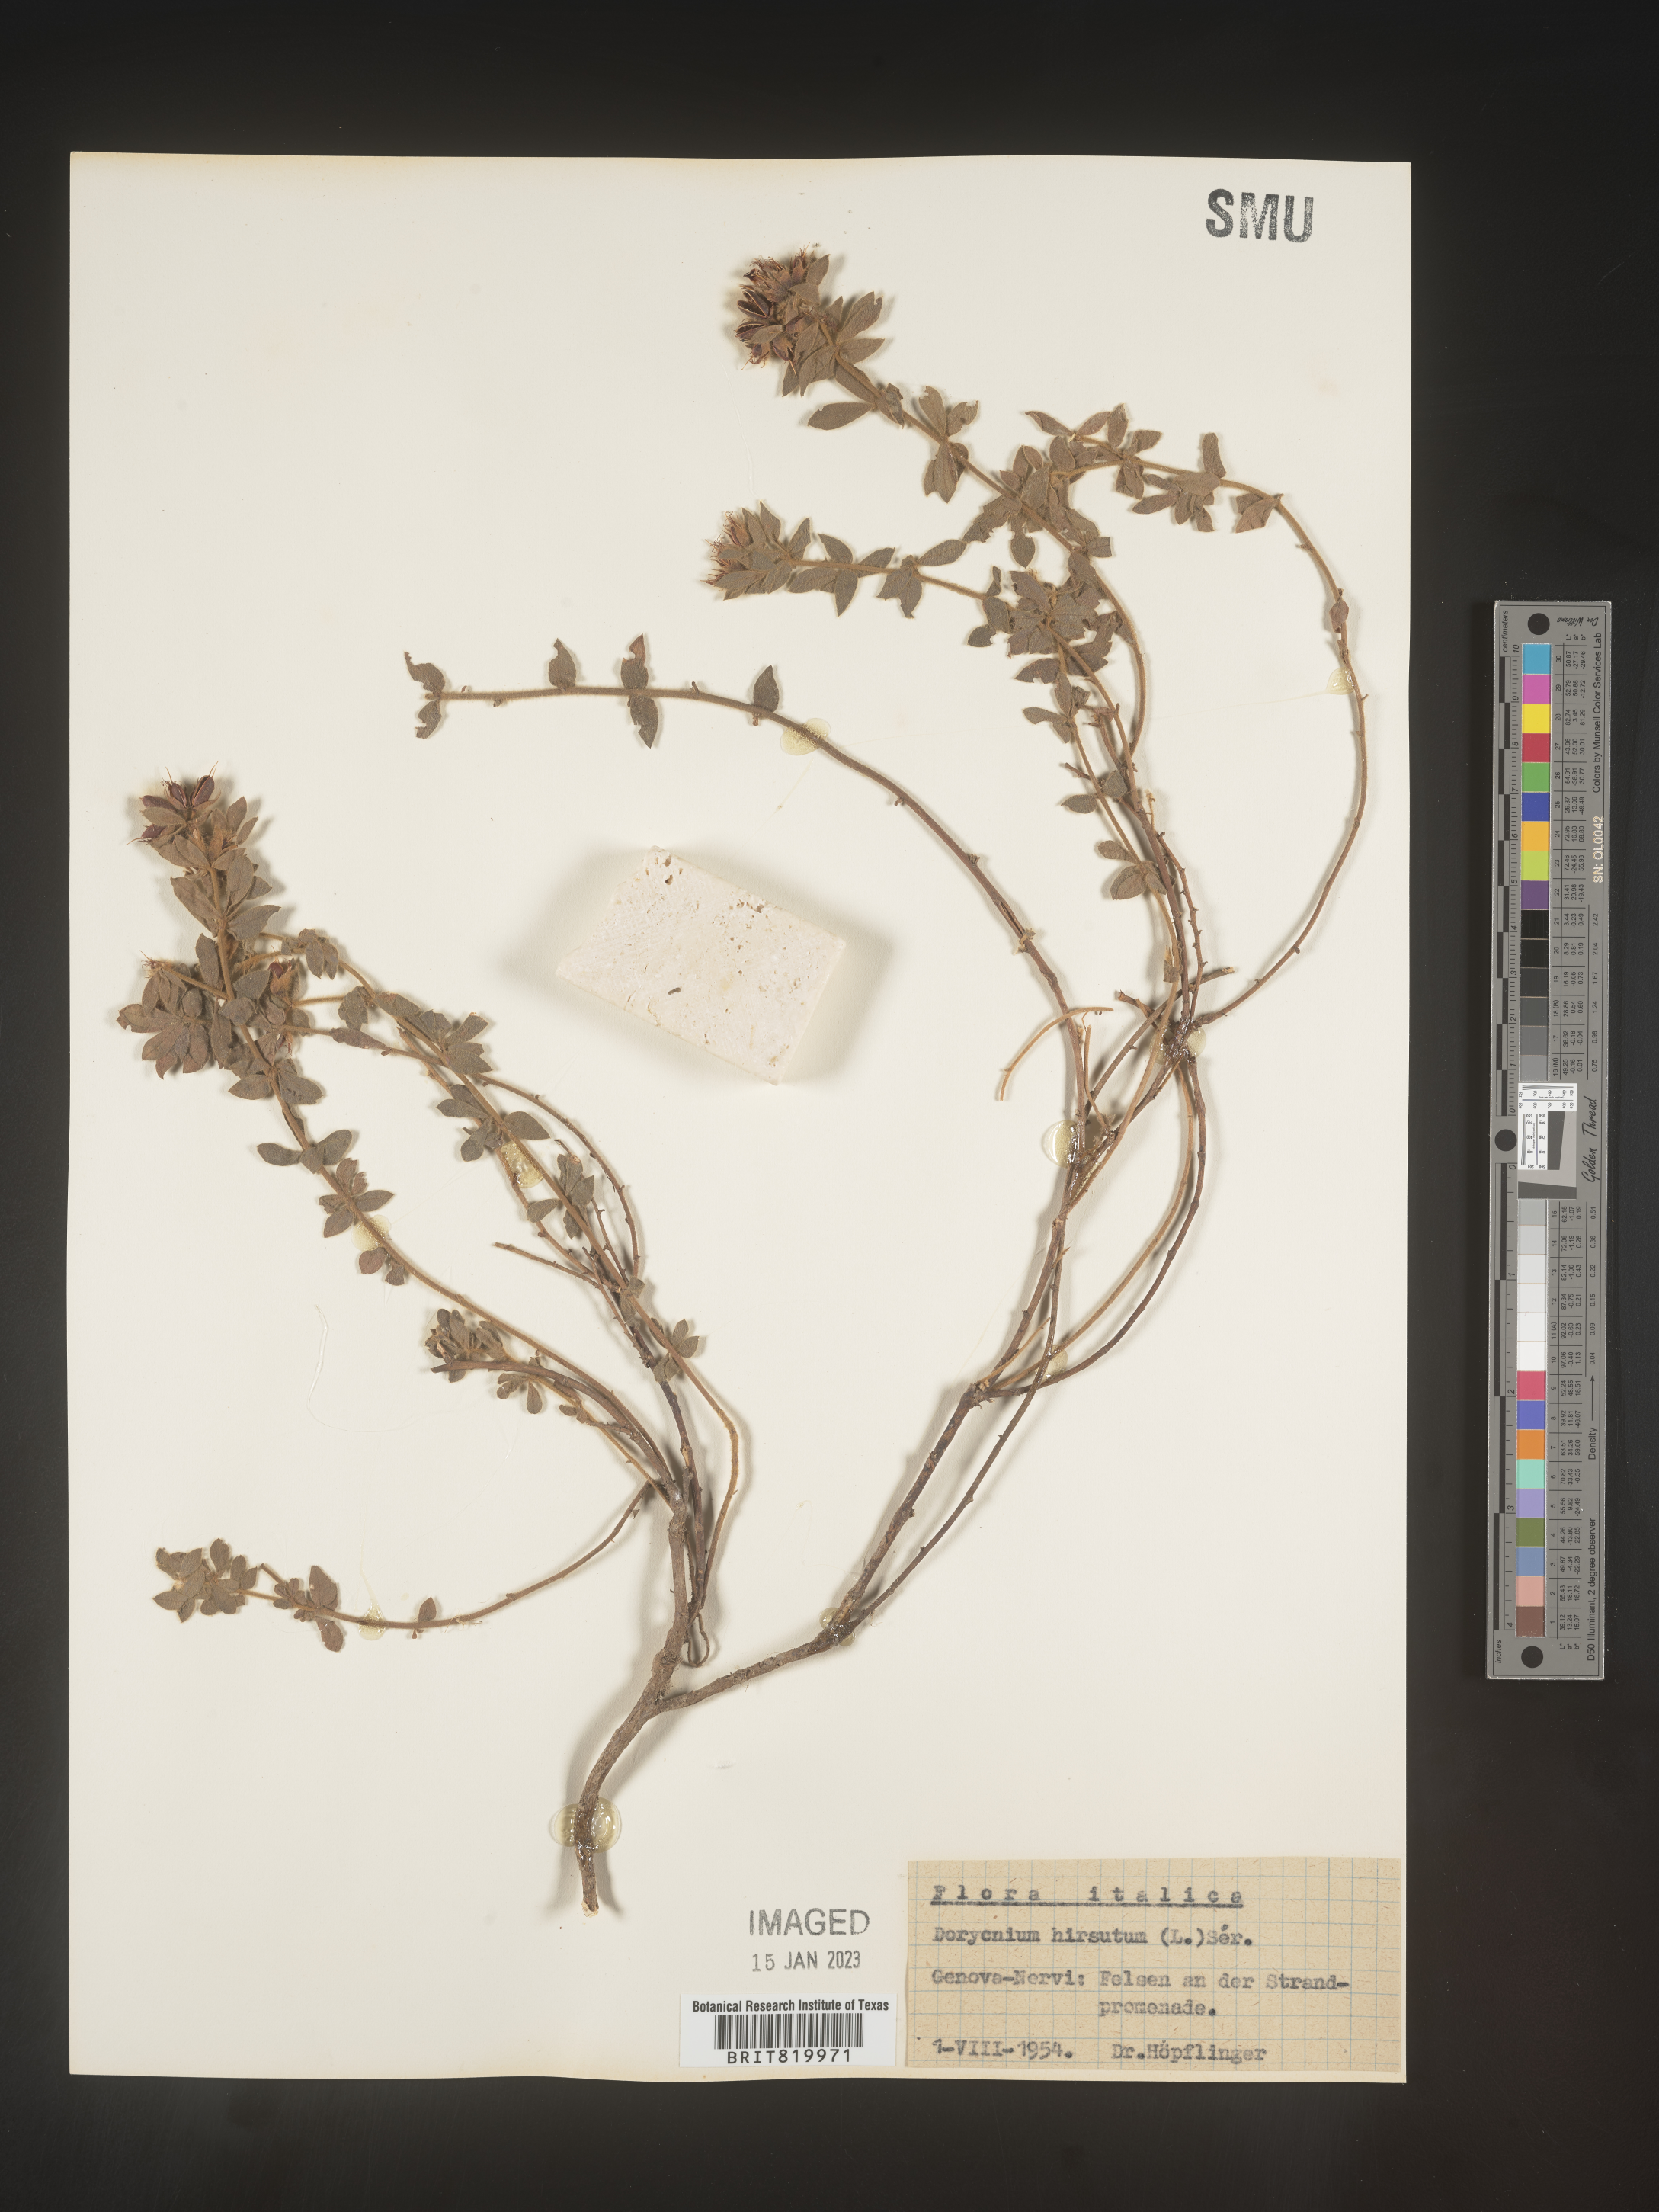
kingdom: Plantae
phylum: Tracheophyta
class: Magnoliopsida
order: Fabales
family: Fabaceae
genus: Lotus
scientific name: Lotus
